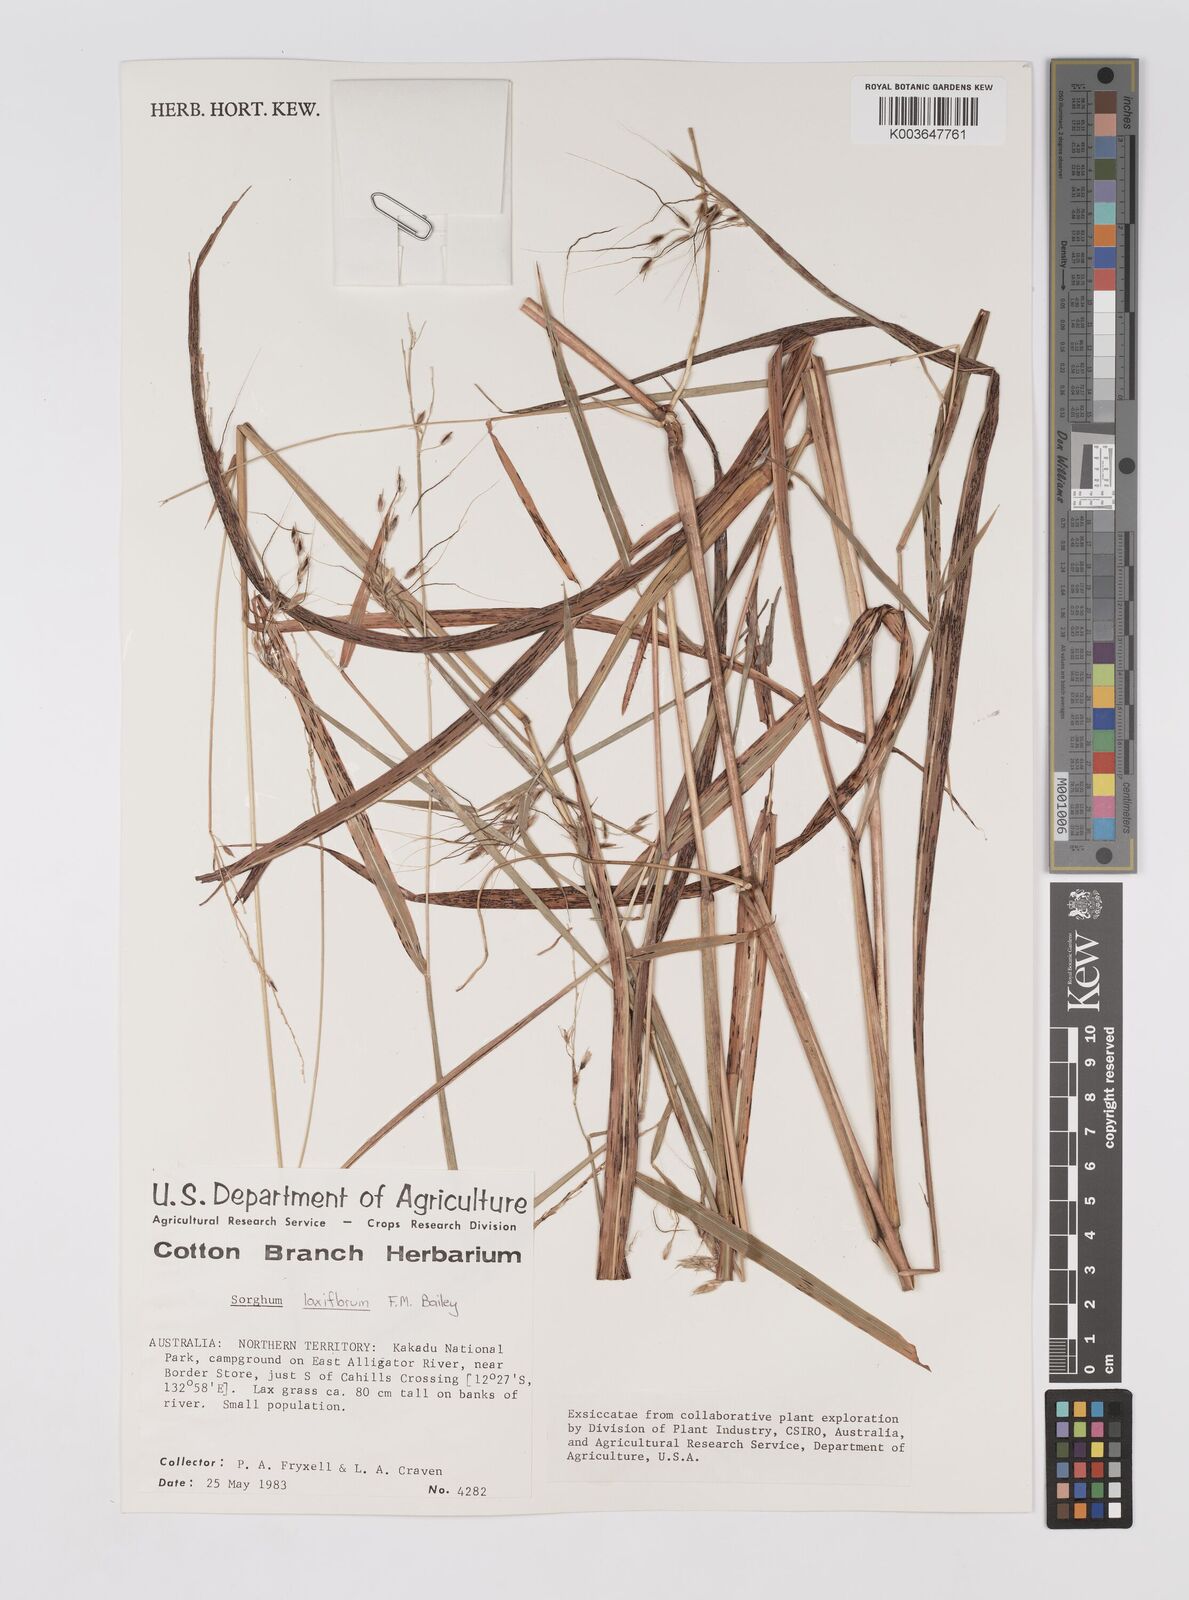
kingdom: Plantae
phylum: Tracheophyta
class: Liliopsida
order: Poales
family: Poaceae
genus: Sorghum
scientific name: Sorghum laxiflorum
